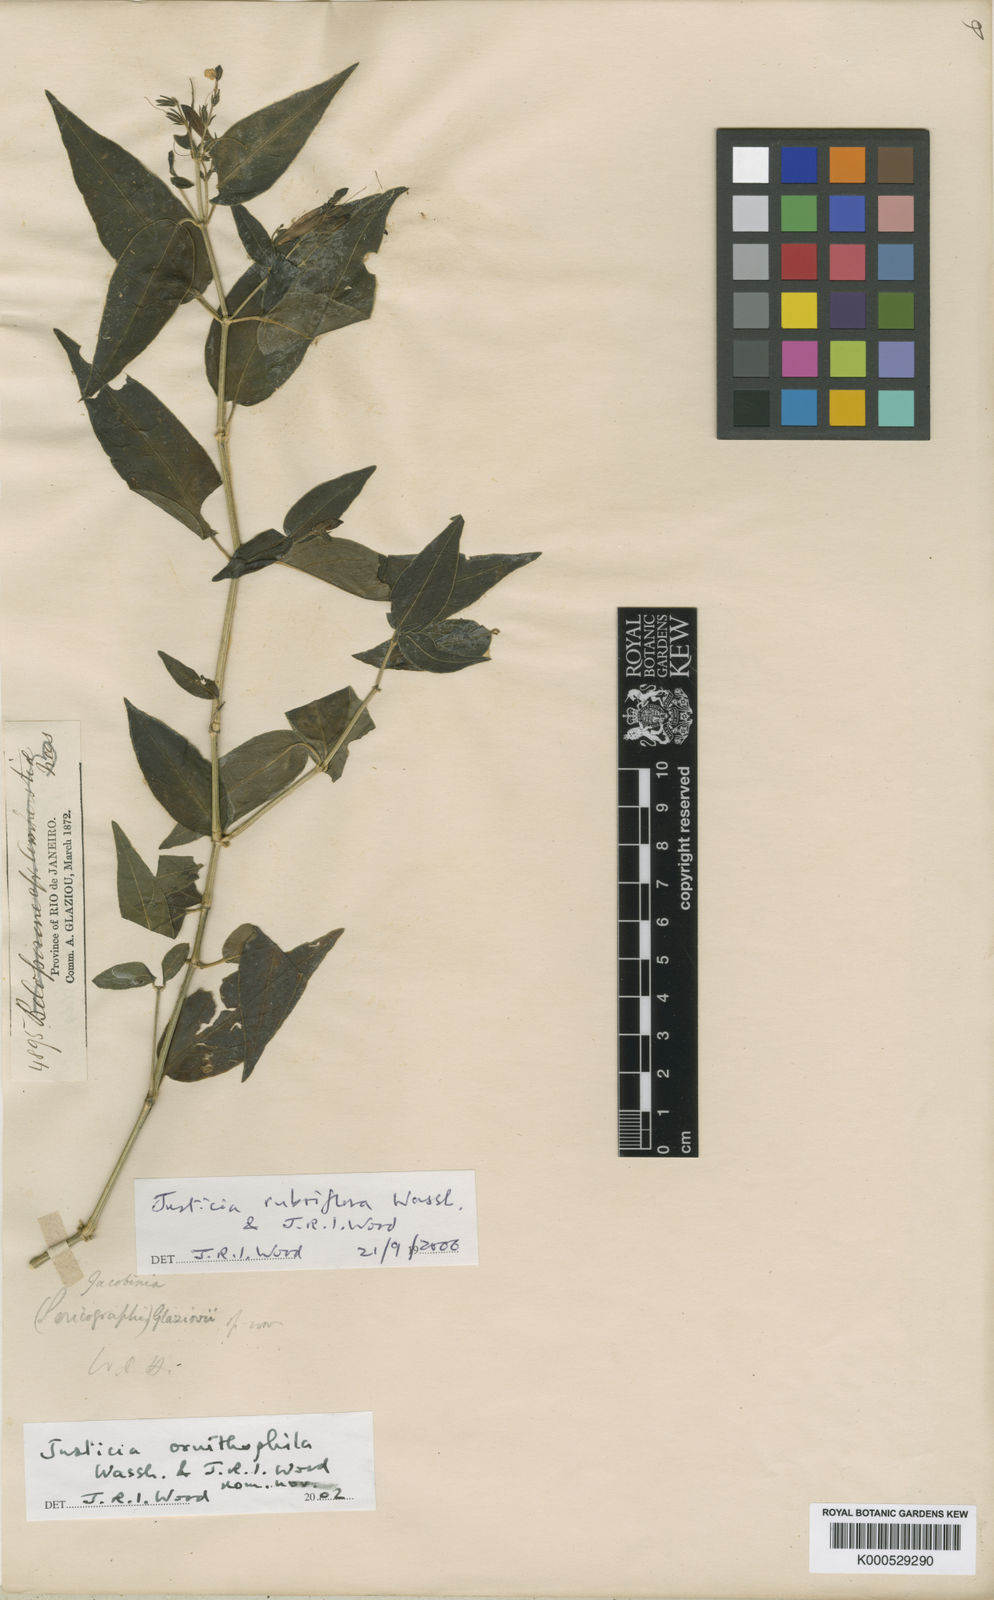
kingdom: Plantae
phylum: Tracheophyta
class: Magnoliopsida
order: Lamiales
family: Acanthaceae
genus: Justicia
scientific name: Justicia
